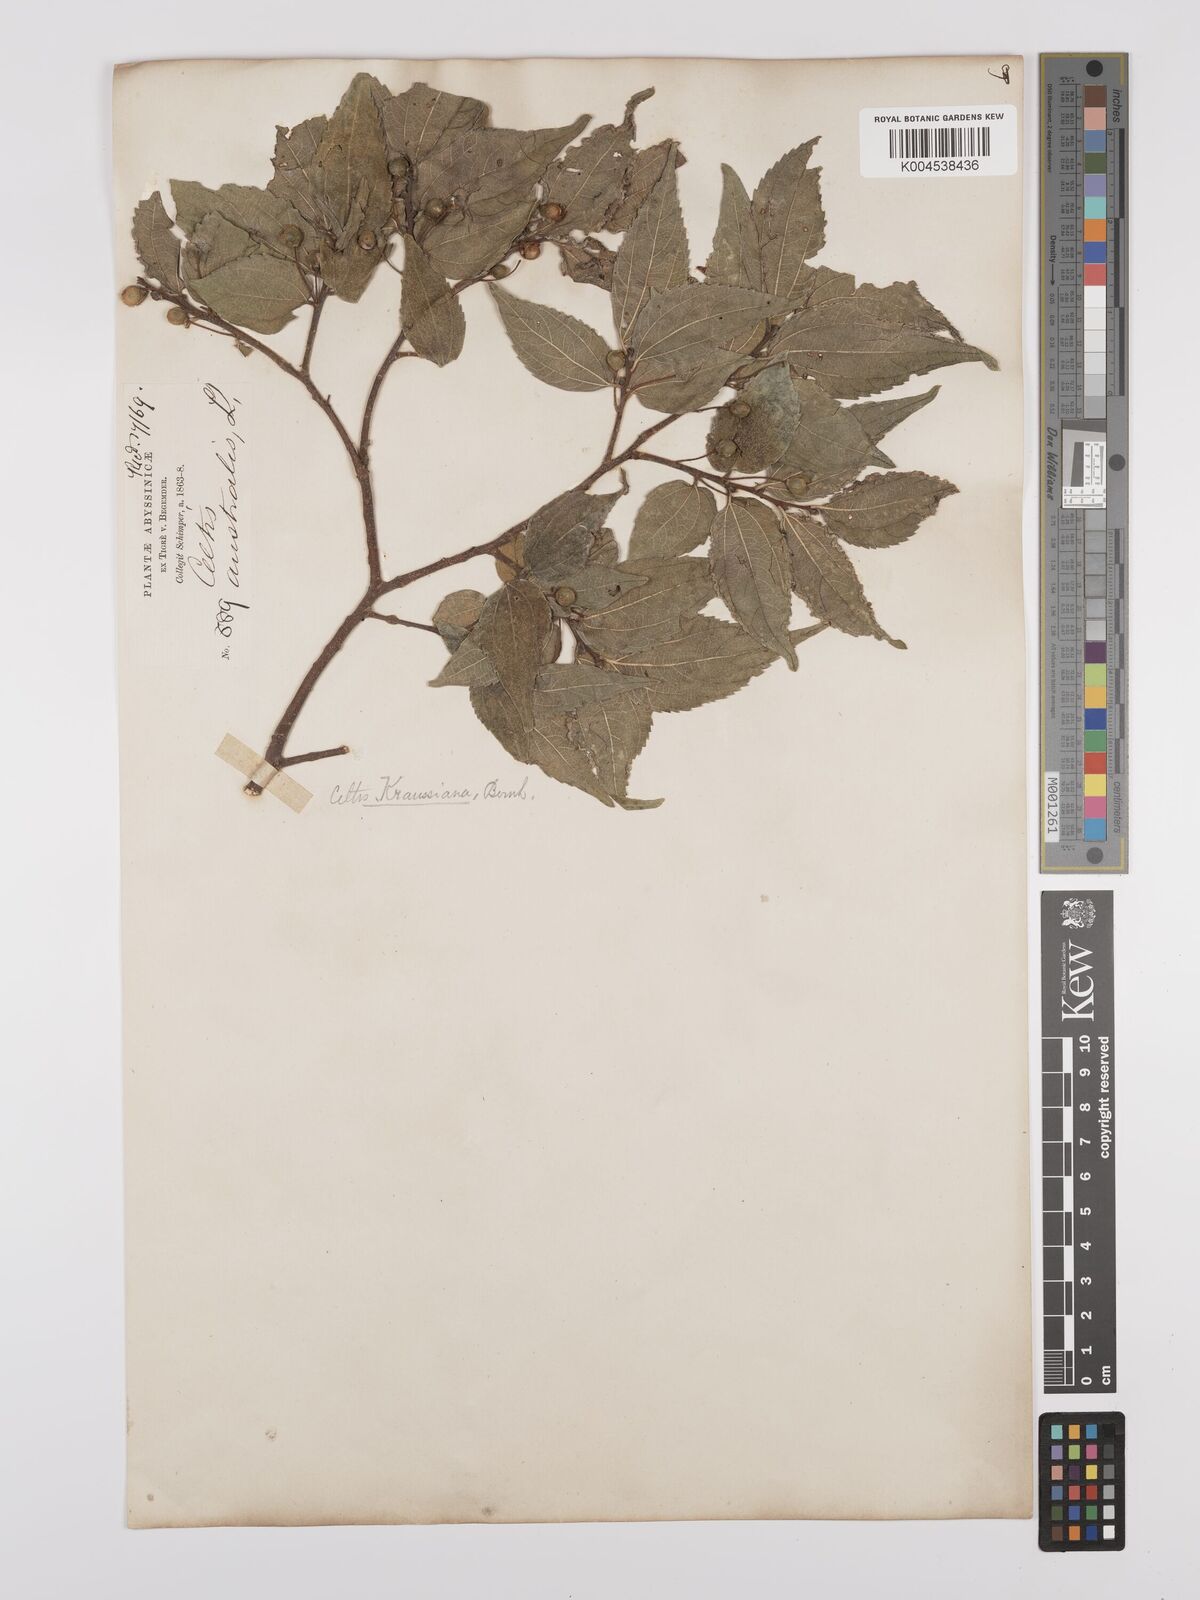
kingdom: Plantae
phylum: Tracheophyta
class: Magnoliopsida
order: Rosales
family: Cannabaceae
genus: Celtis
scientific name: Celtis africana
